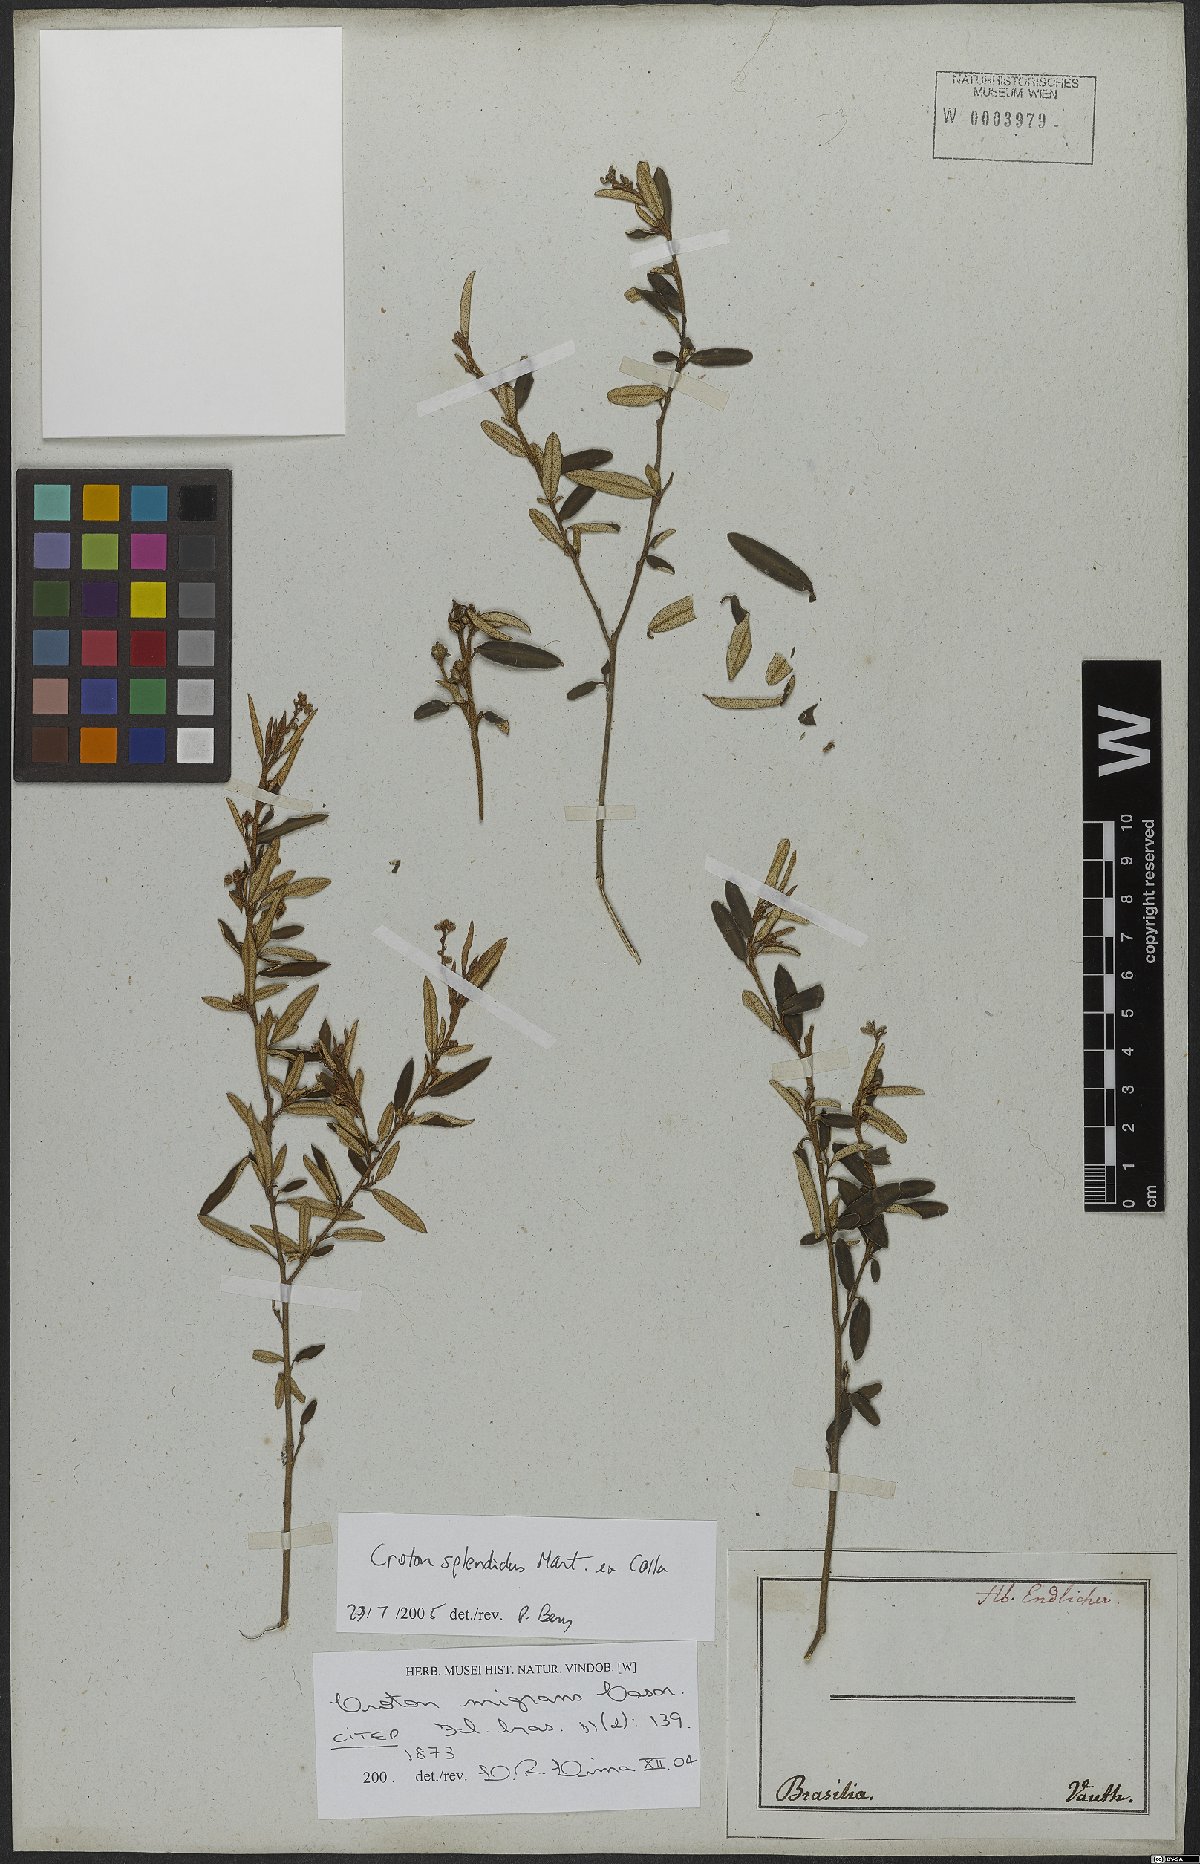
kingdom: Plantae
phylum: Tracheophyta
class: Magnoliopsida
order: Malpighiales
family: Euphorbiaceae
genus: Croton
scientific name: Croton splendidus
